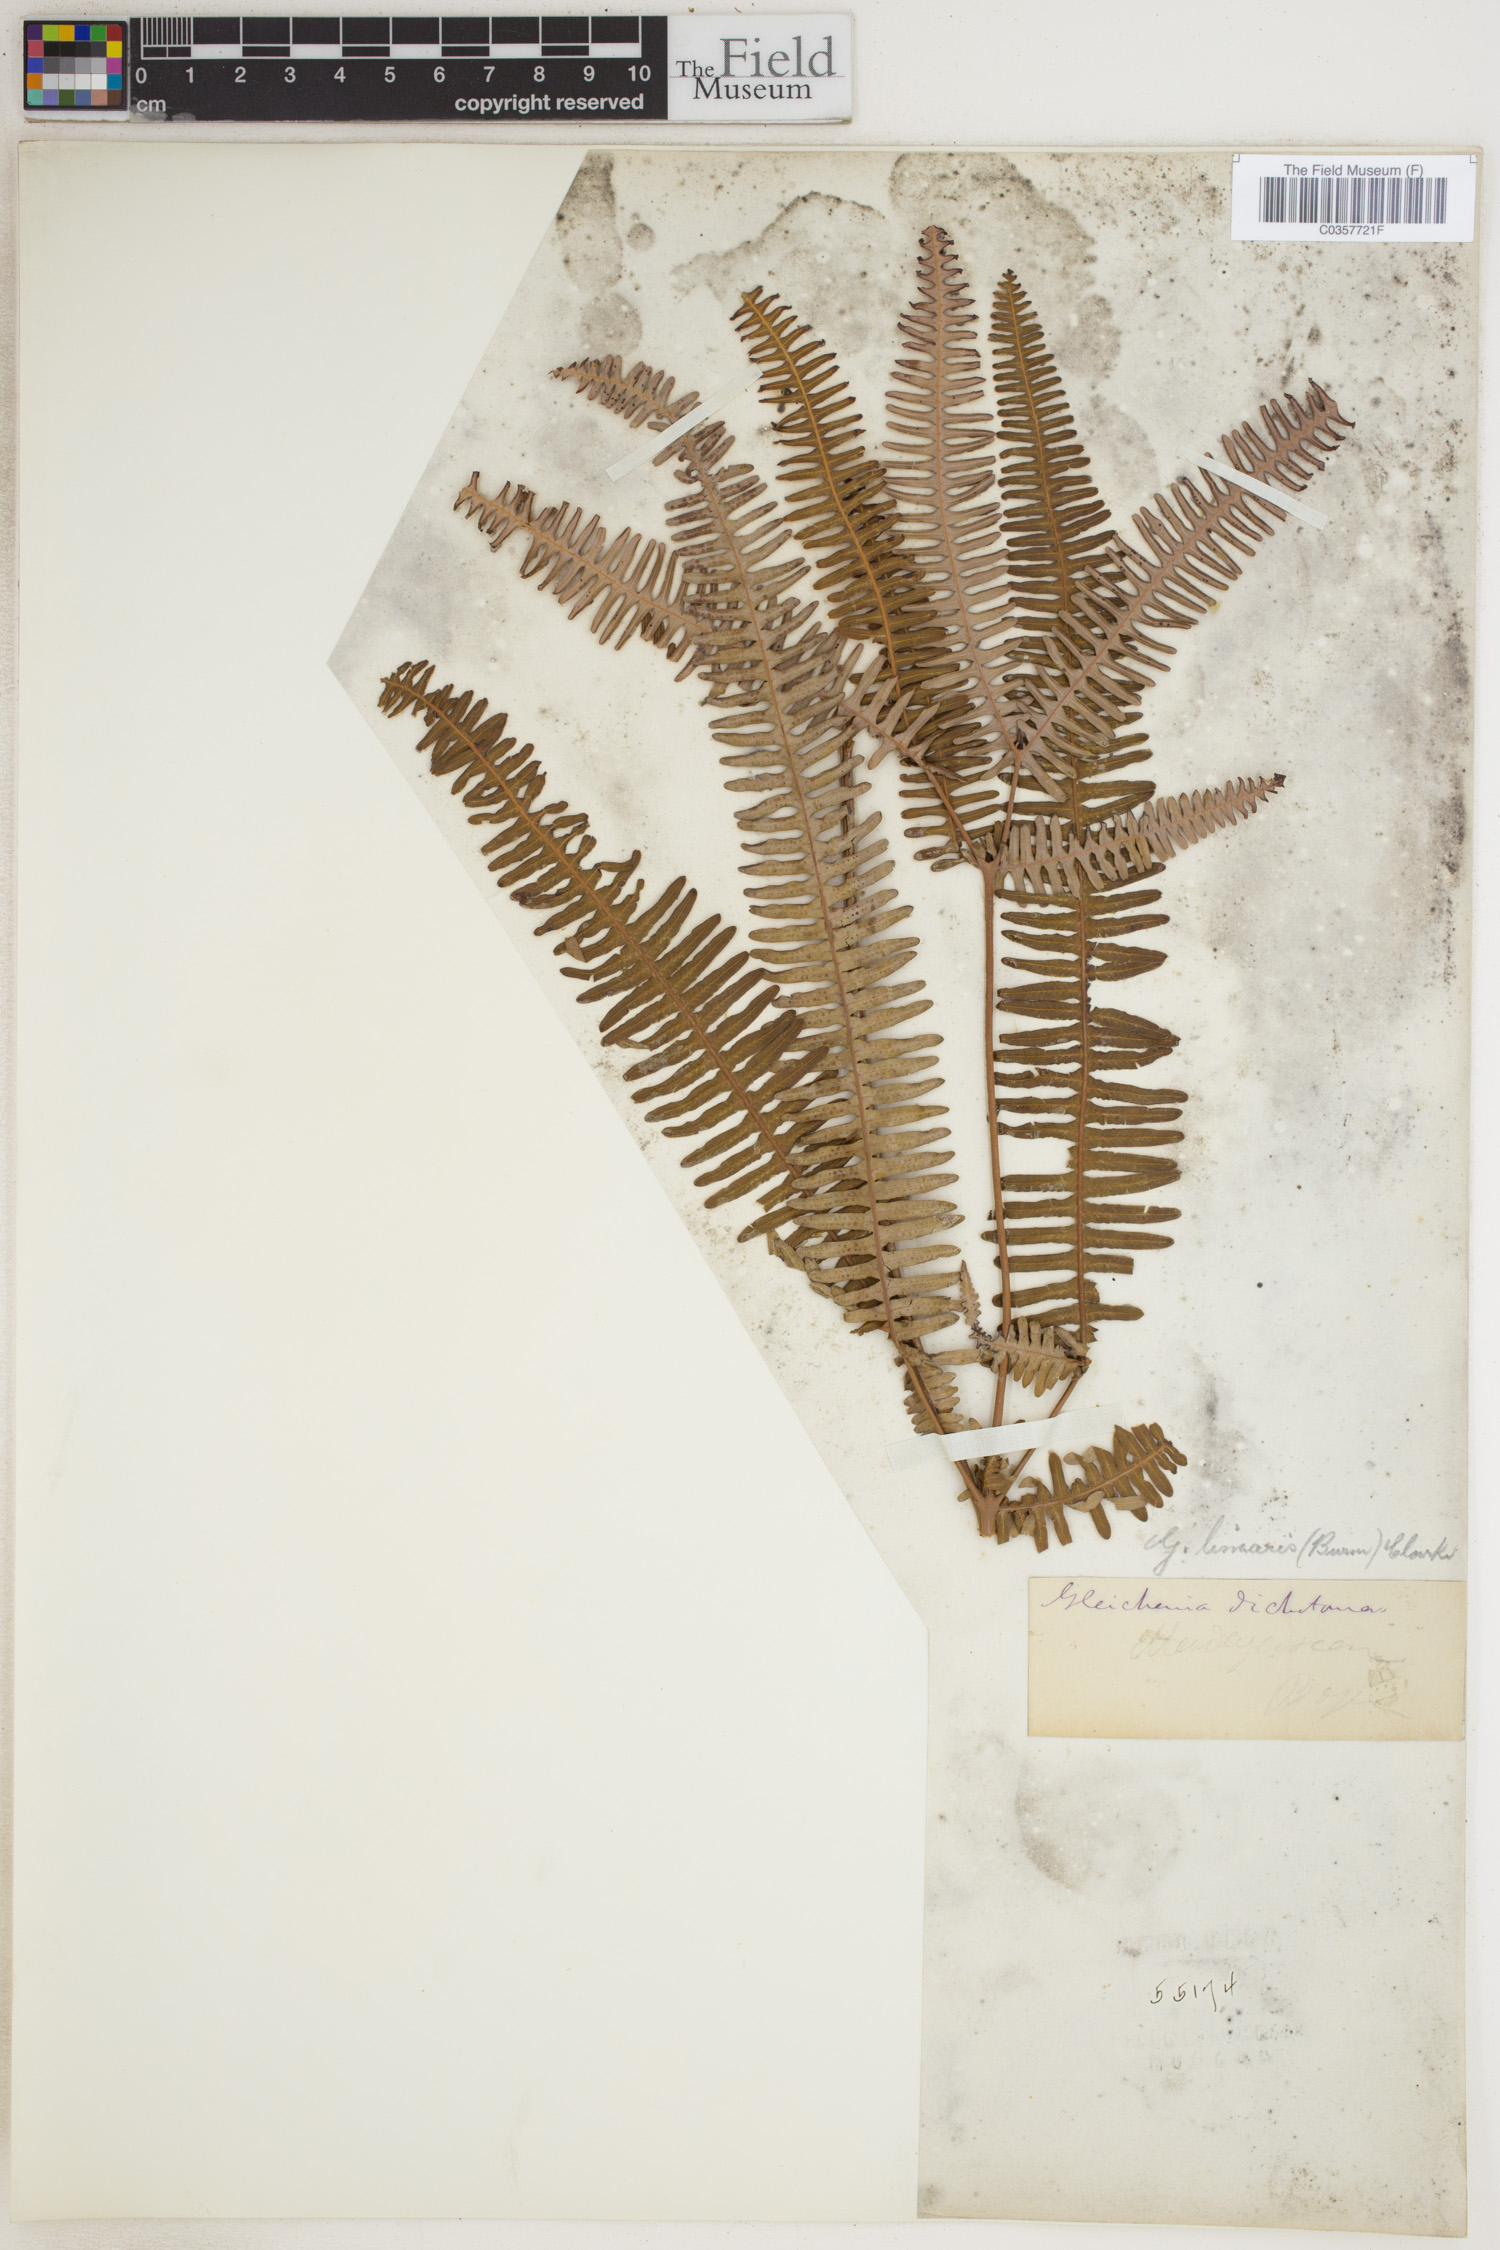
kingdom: Plantae
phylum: Tracheophyta
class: Polypodiopsida
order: Gleicheniales
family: Gleicheniaceae
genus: Dicranopteris
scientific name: Dicranopteris linearis
